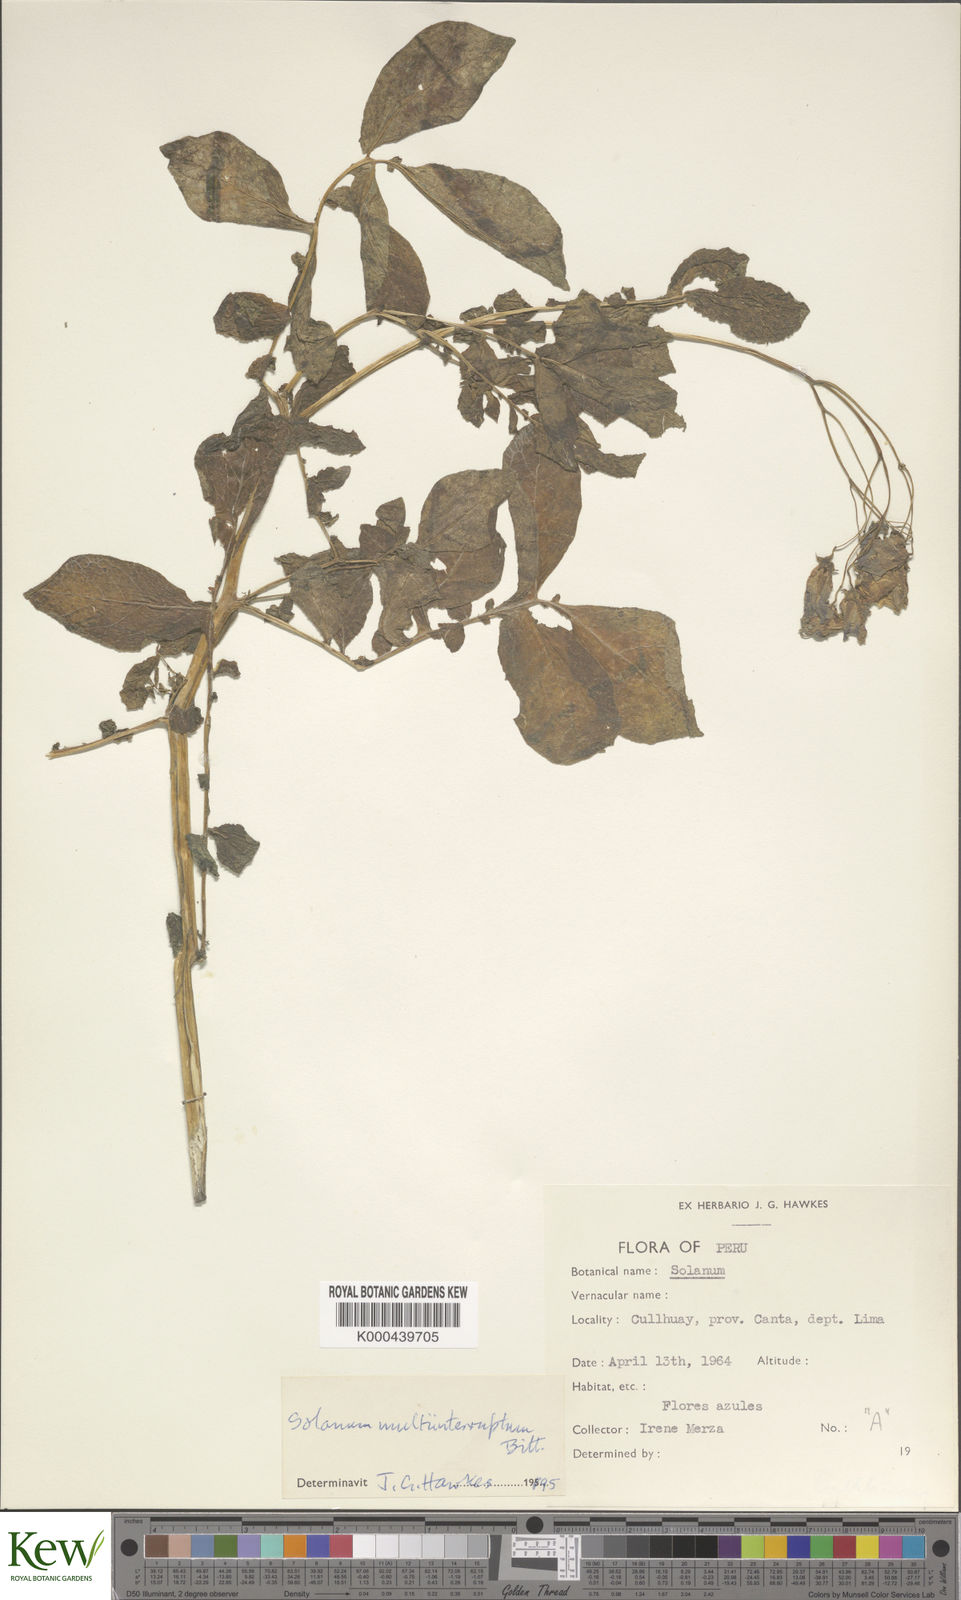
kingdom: Plantae
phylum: Tracheophyta
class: Magnoliopsida
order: Solanales
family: Solanaceae
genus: Solanum
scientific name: Solanum multiinterruptum
